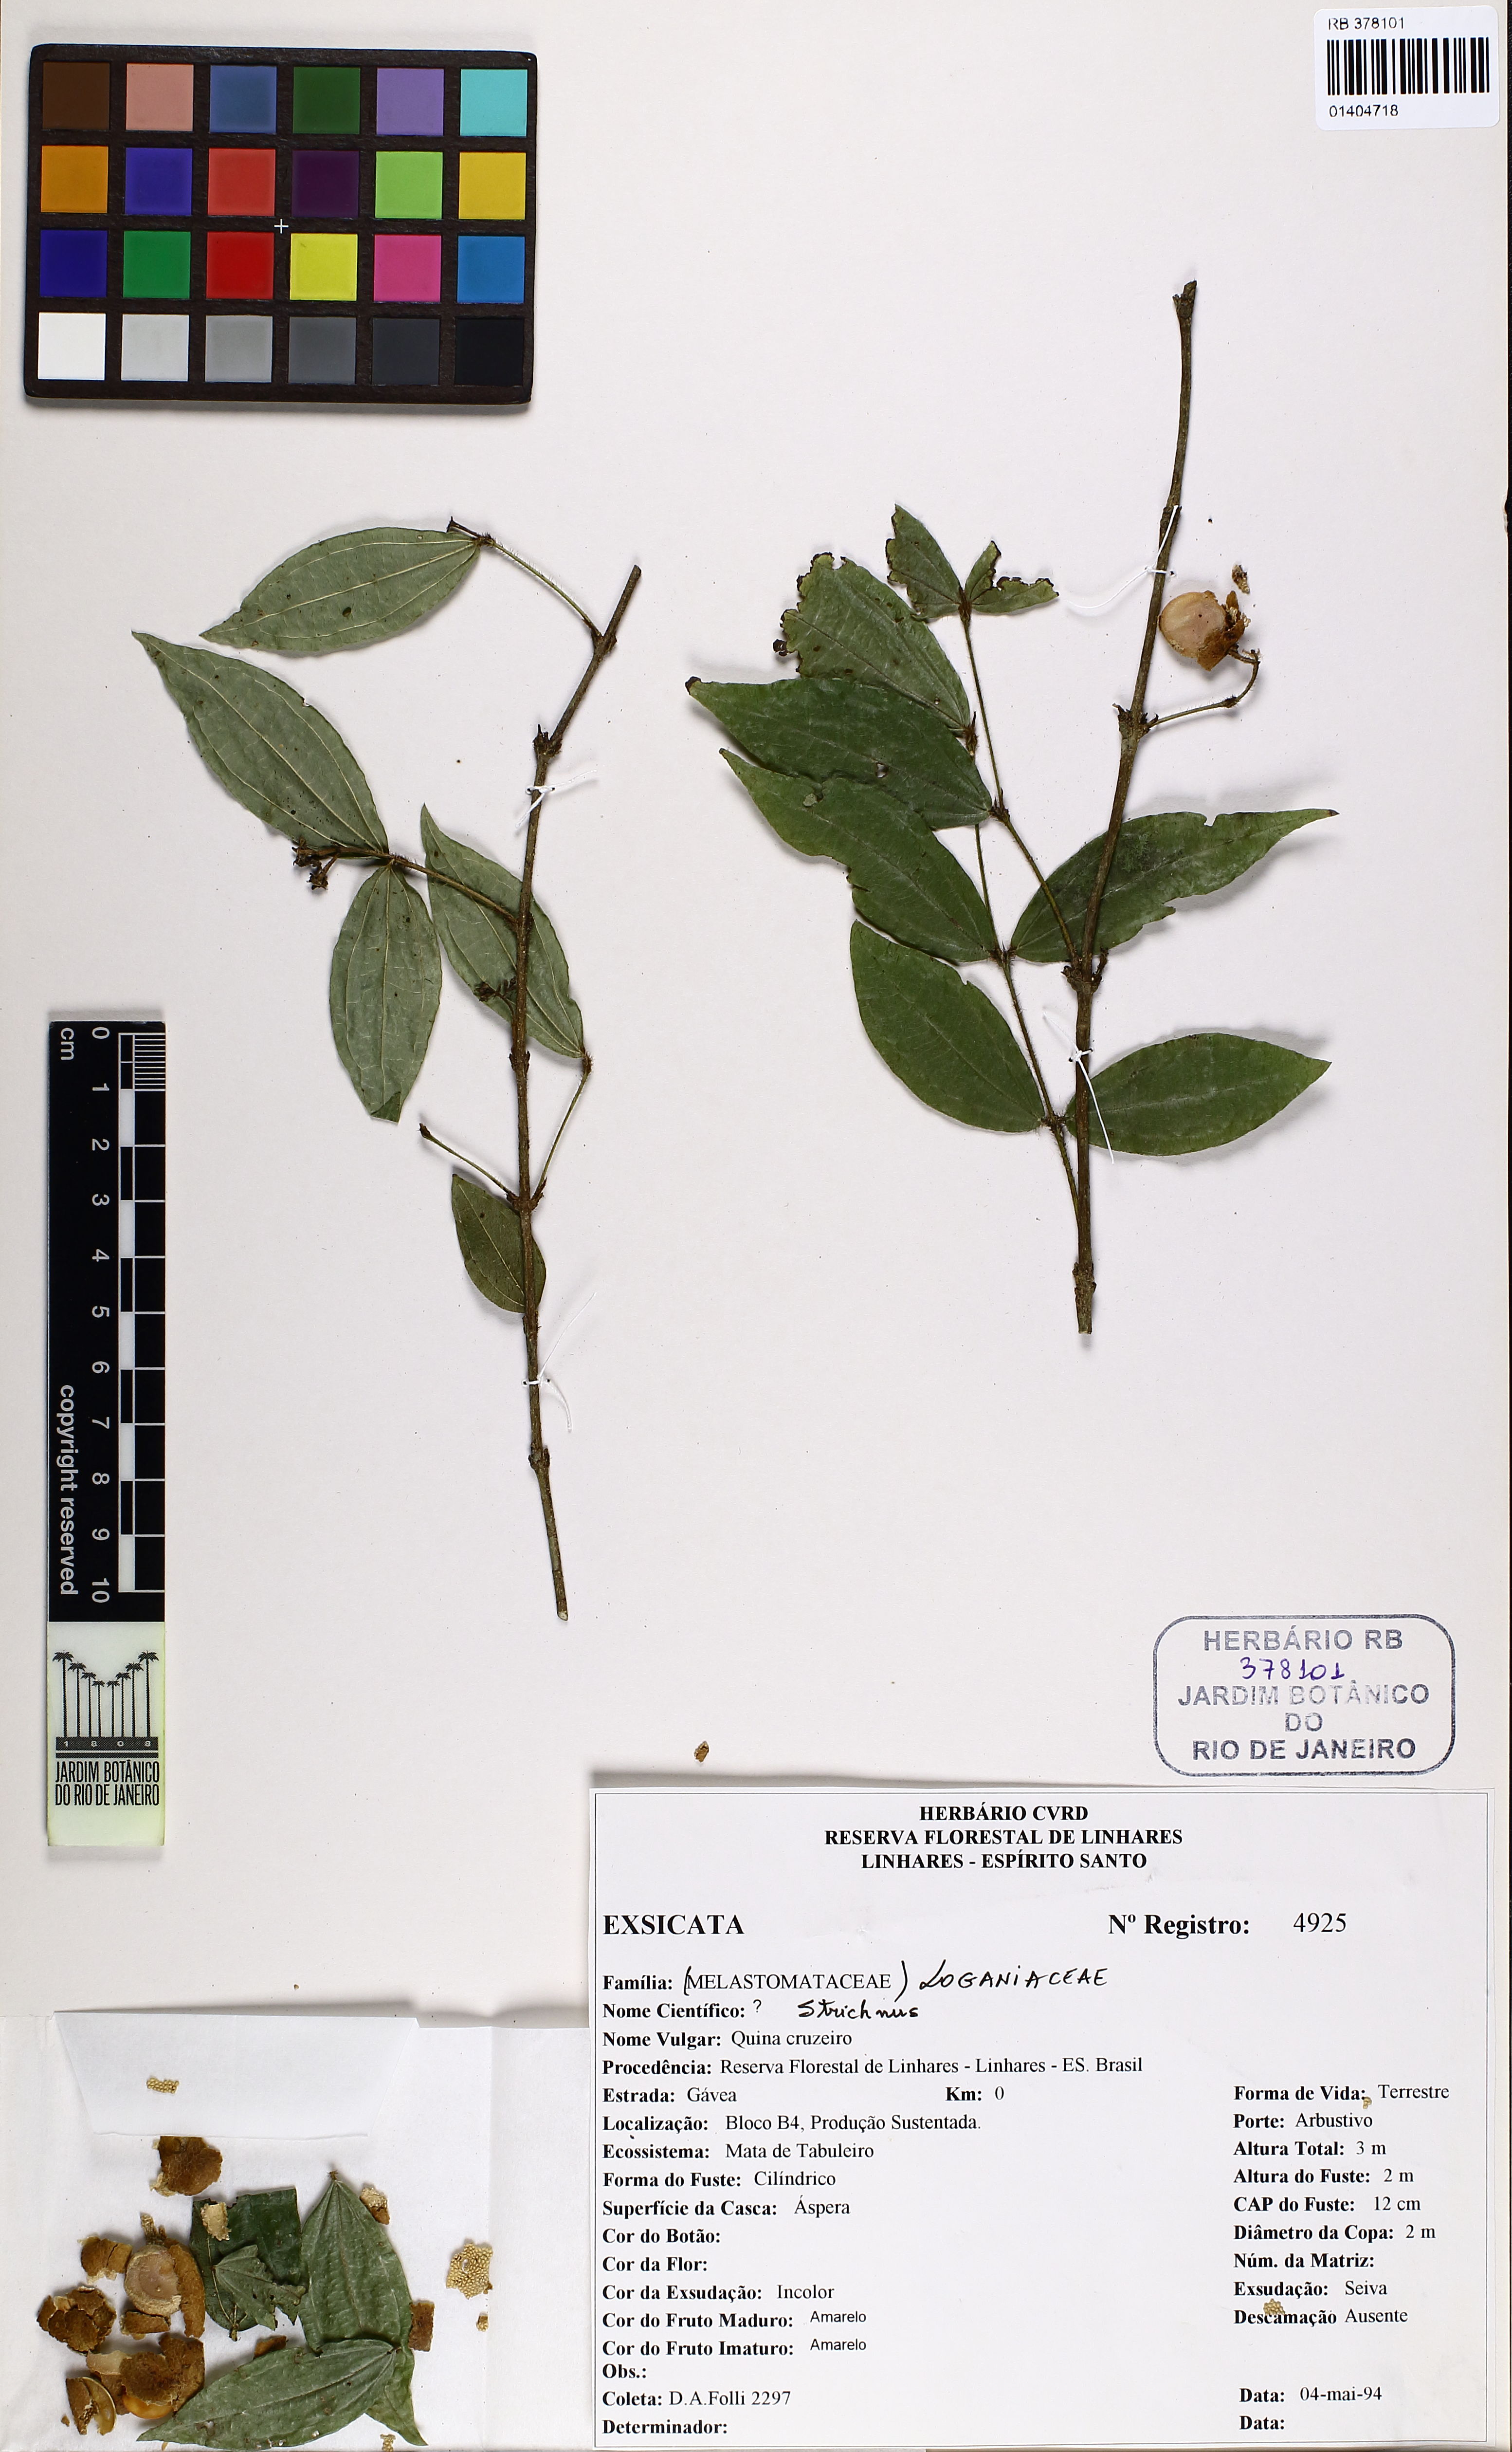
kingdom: Plantae
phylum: Tracheophyta
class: Magnoliopsida
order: Gentianales
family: Loganiaceae
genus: Strychnos
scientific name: Strychnos setosa
